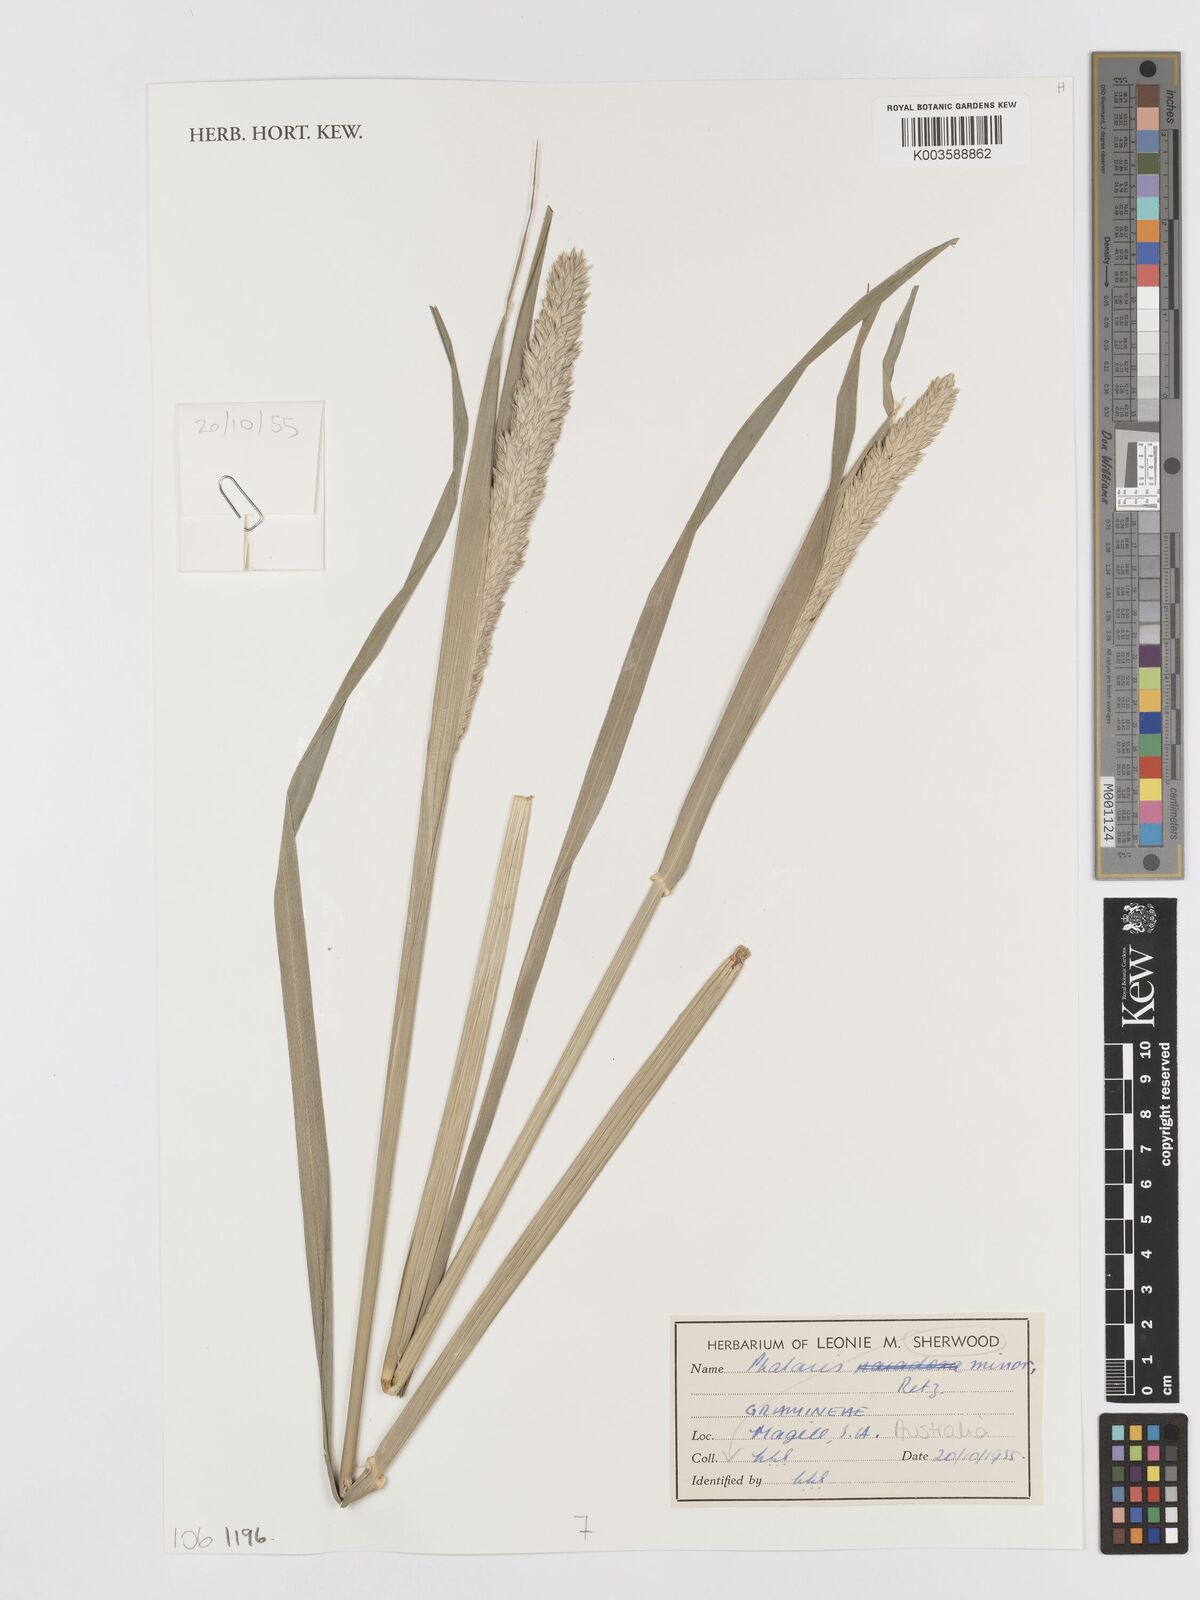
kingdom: Plantae
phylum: Tracheophyta
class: Liliopsida
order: Poales
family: Poaceae
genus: Phalaris
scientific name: Phalaris minor
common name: Littleseed canarygrass
